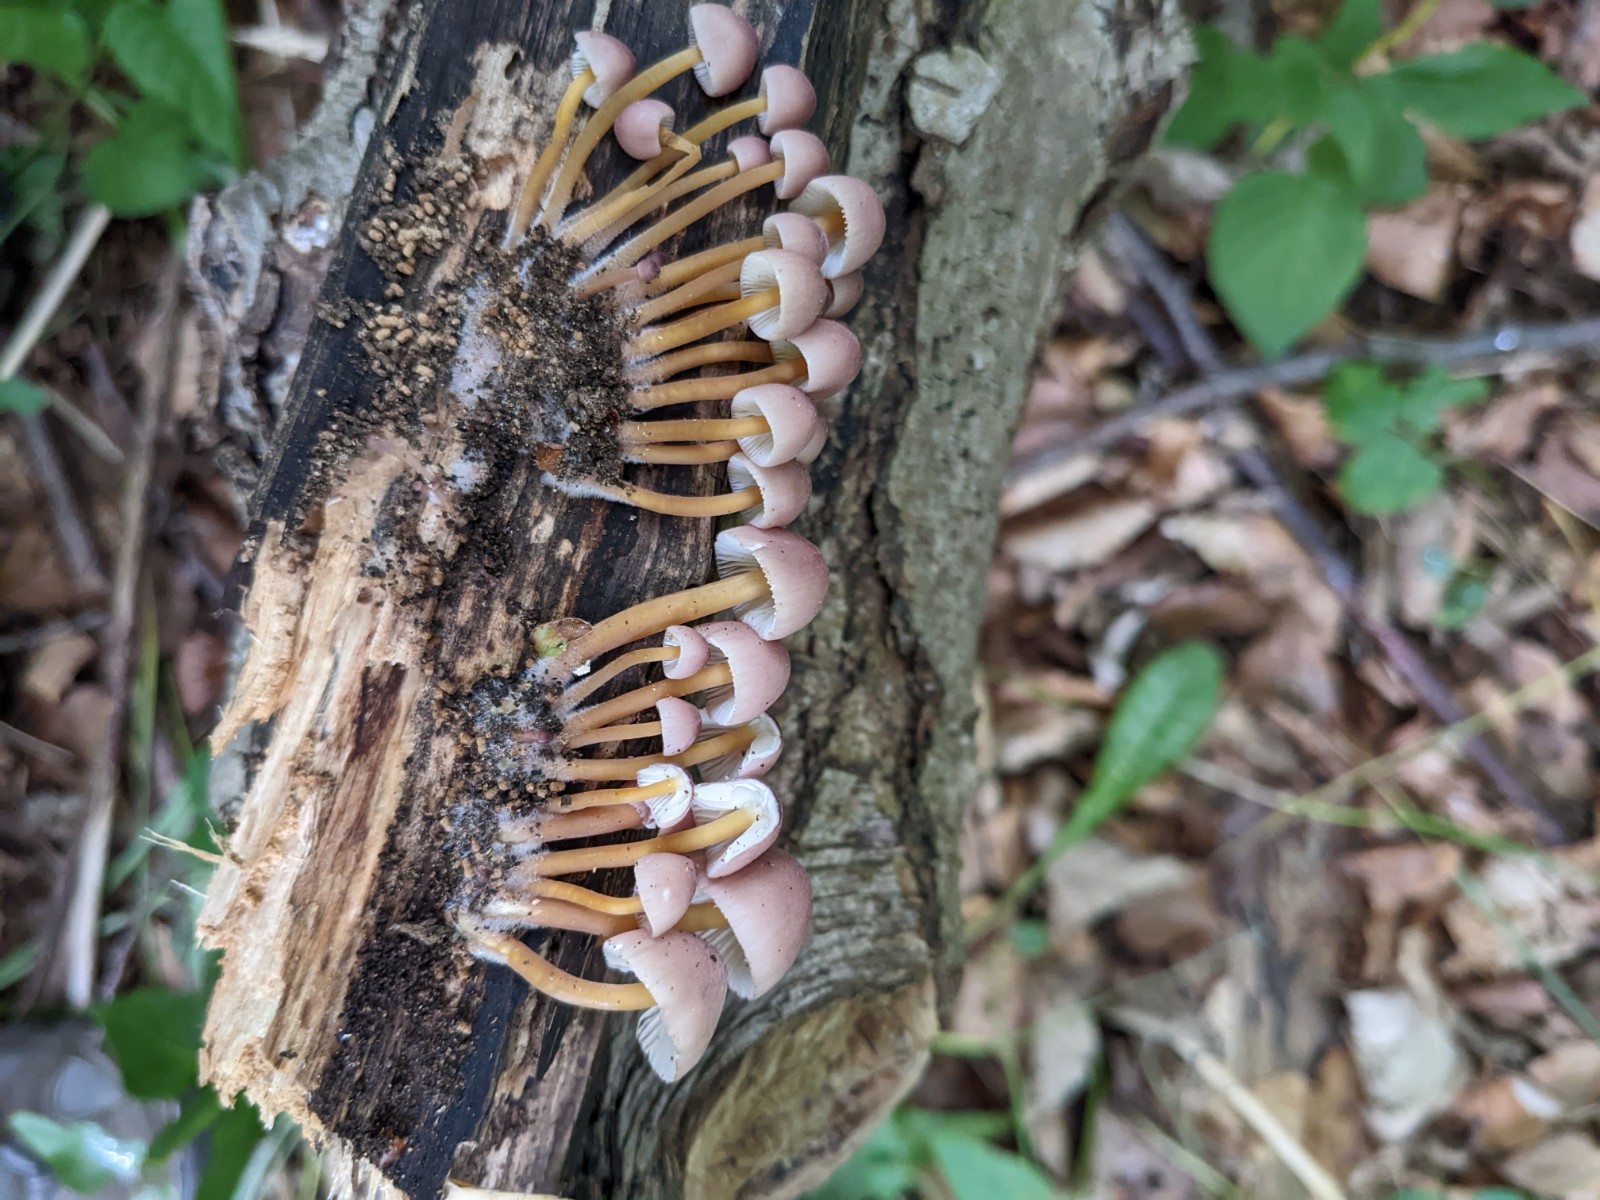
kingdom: Fungi
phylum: Basidiomycota
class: Agaricomycetes
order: Agaricales
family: Mycenaceae
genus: Mycena
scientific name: Mycena renati
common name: smuk huesvamp
